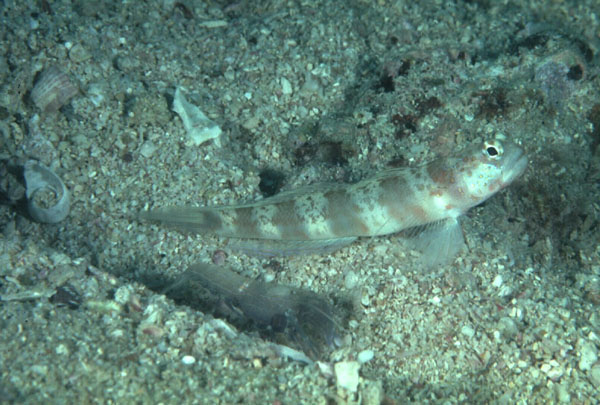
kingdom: Animalia
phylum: Chordata
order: Perciformes
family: Gobiidae
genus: Amblyeleotris
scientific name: Amblyeleotris periophthalma
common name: Periophthalma prawn-goby
